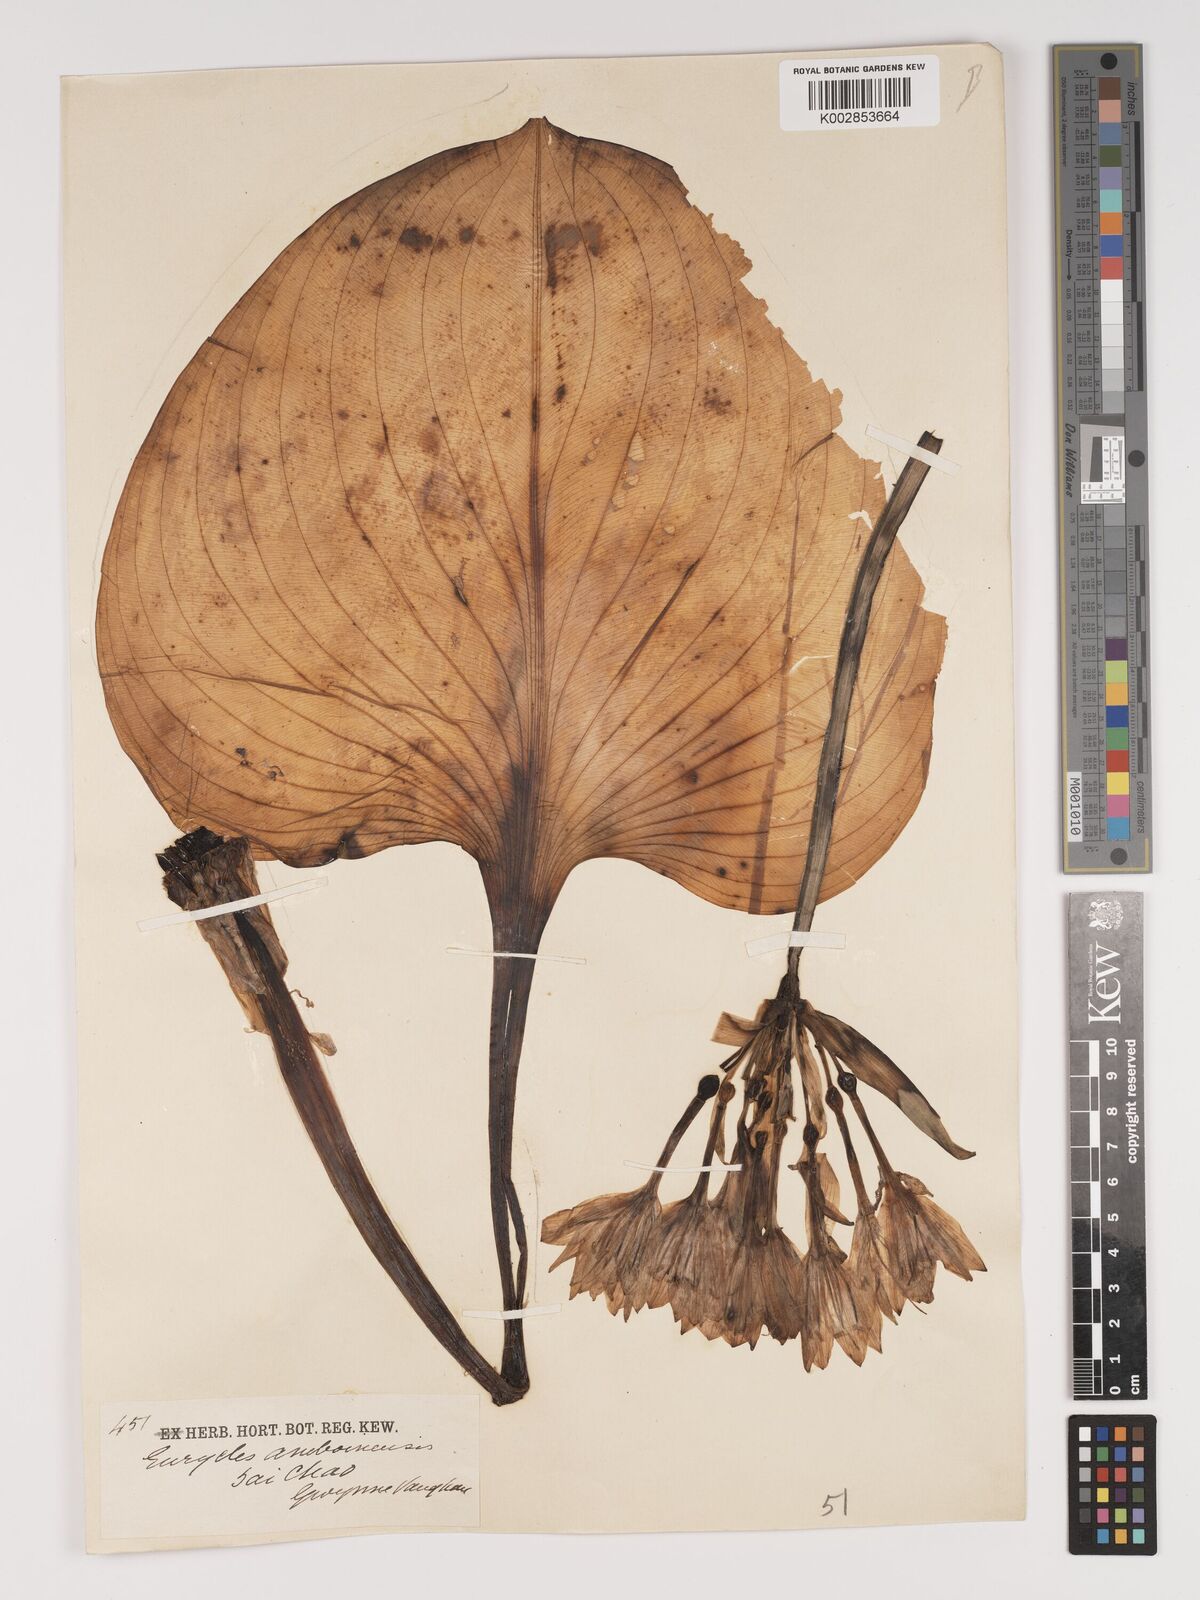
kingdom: Plantae
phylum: Tracheophyta
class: Liliopsida
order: Asparagales
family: Amaryllidaceae
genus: Proiphys
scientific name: Proiphys amboinensis
